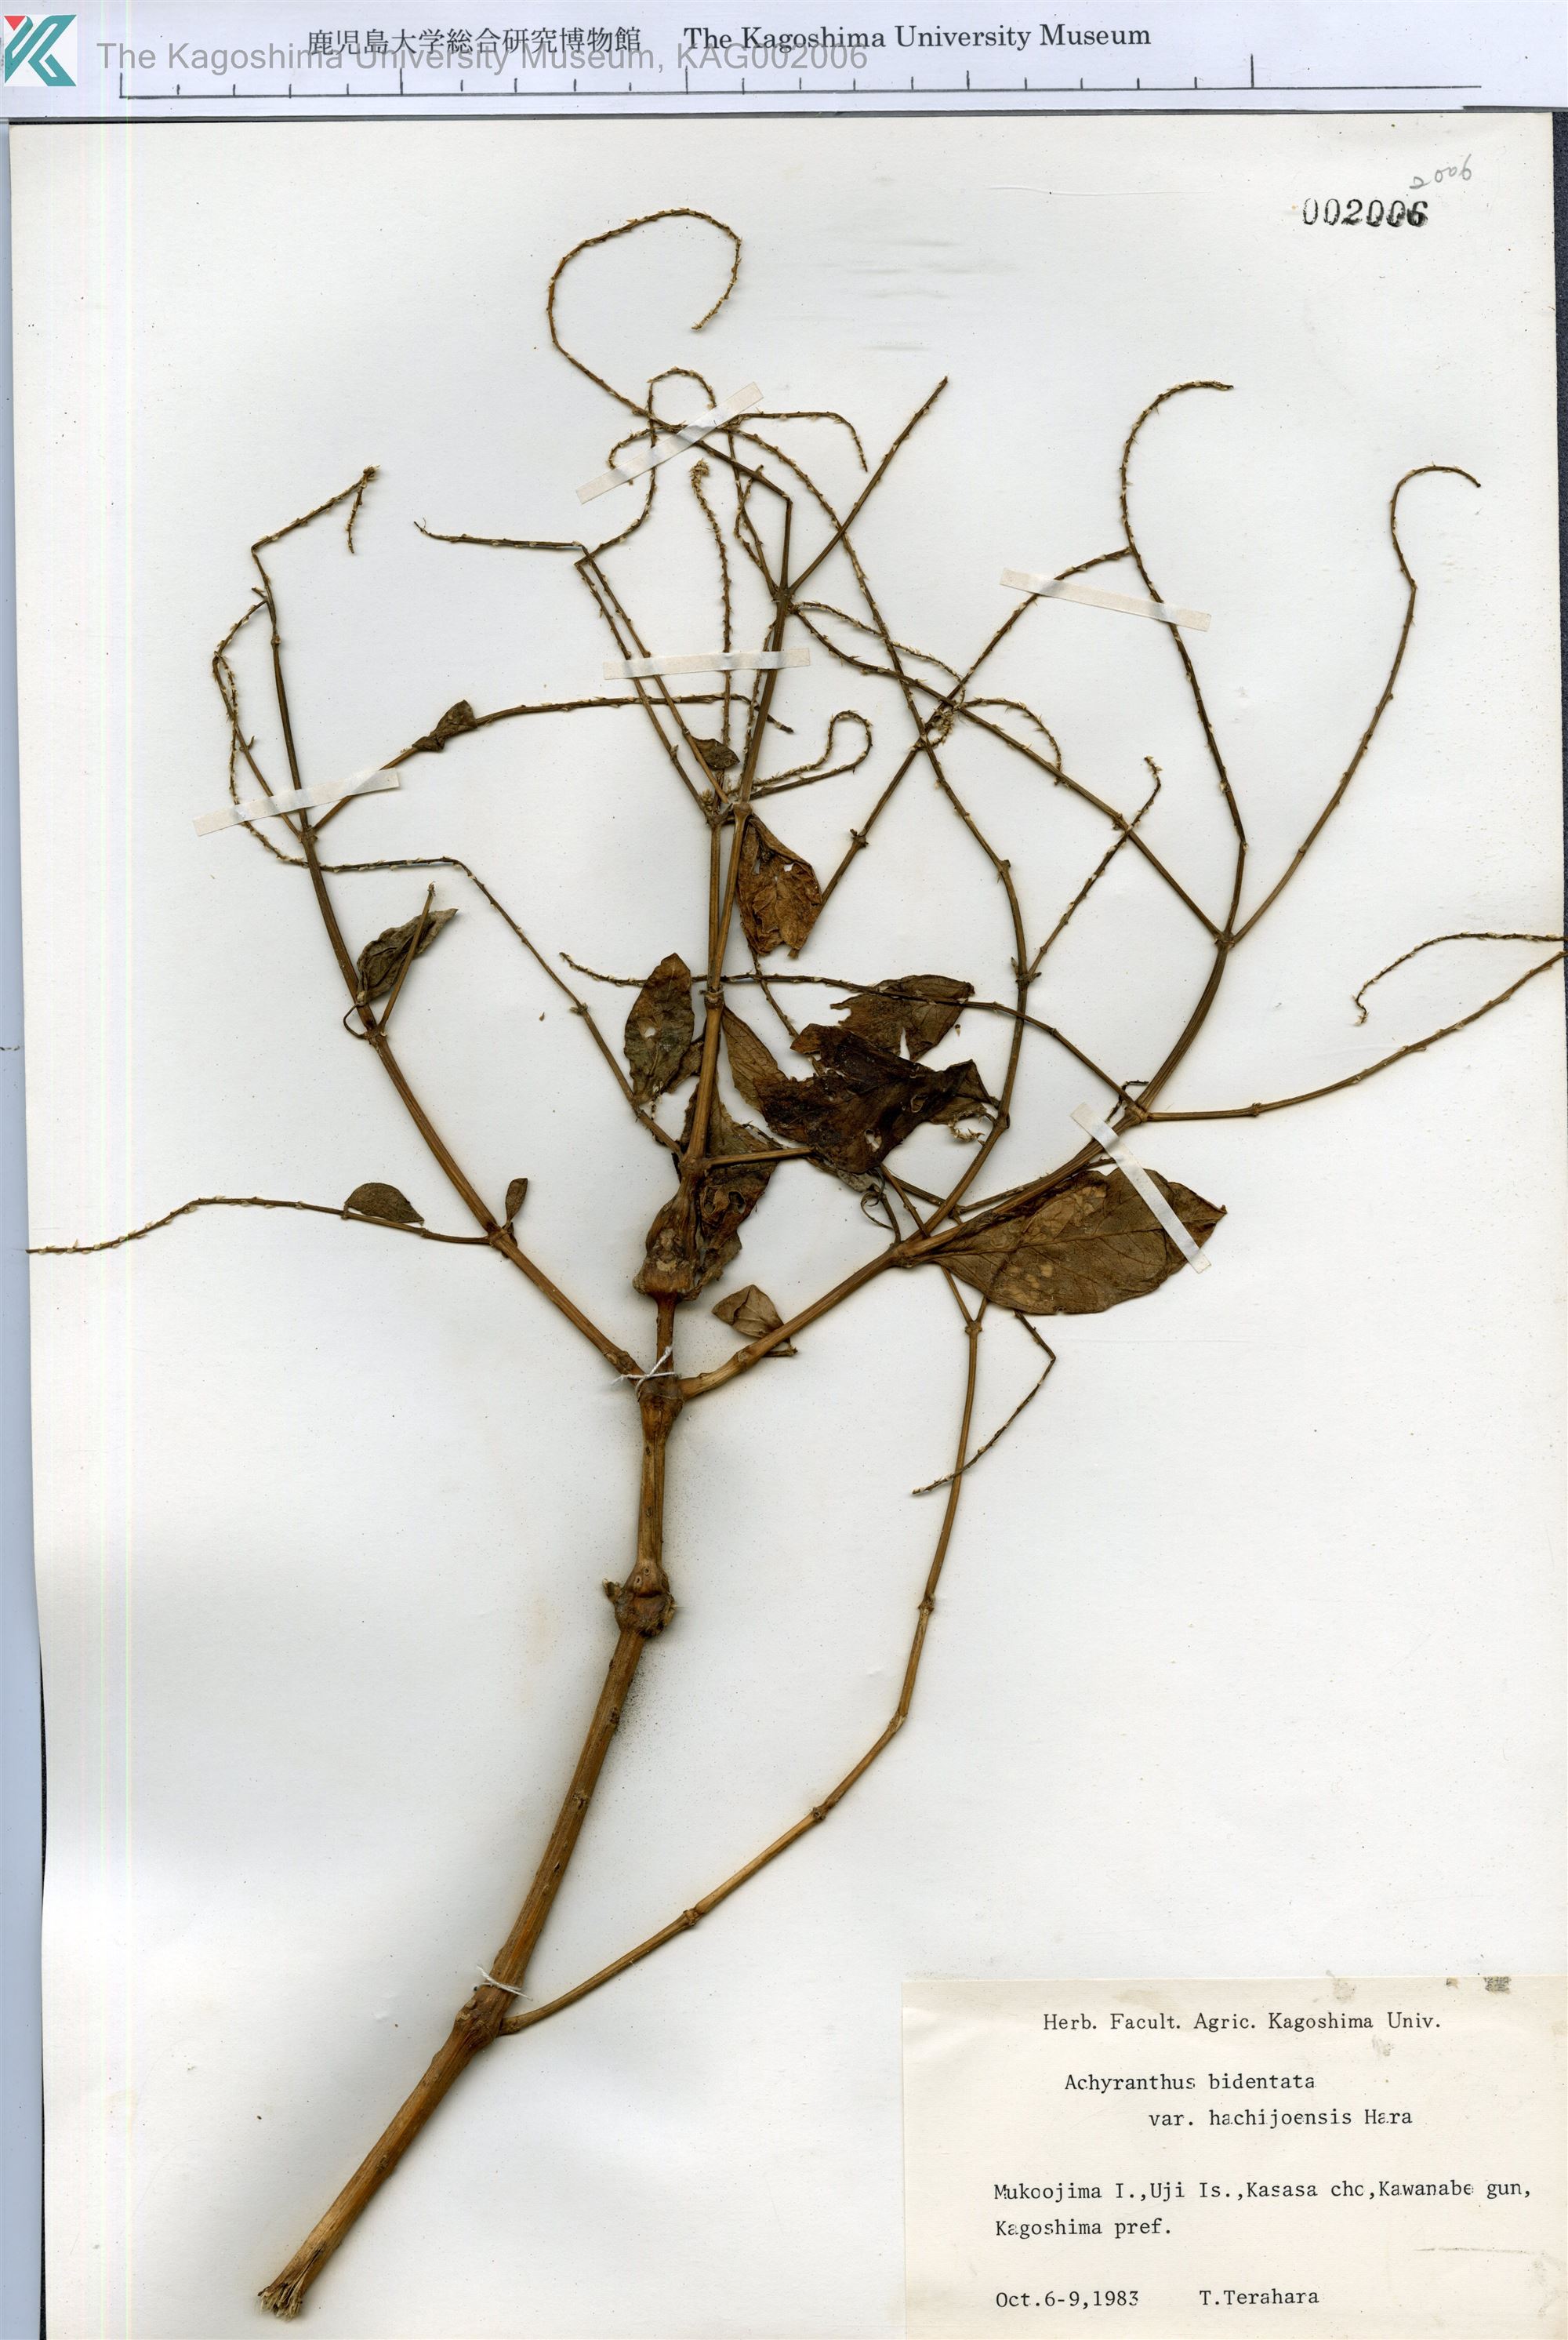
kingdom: Plantae
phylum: Tracheophyta
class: Magnoliopsida
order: Caryophyllales
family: Amaranthaceae
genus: Achyranthes
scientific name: Achyranthes bidentata
